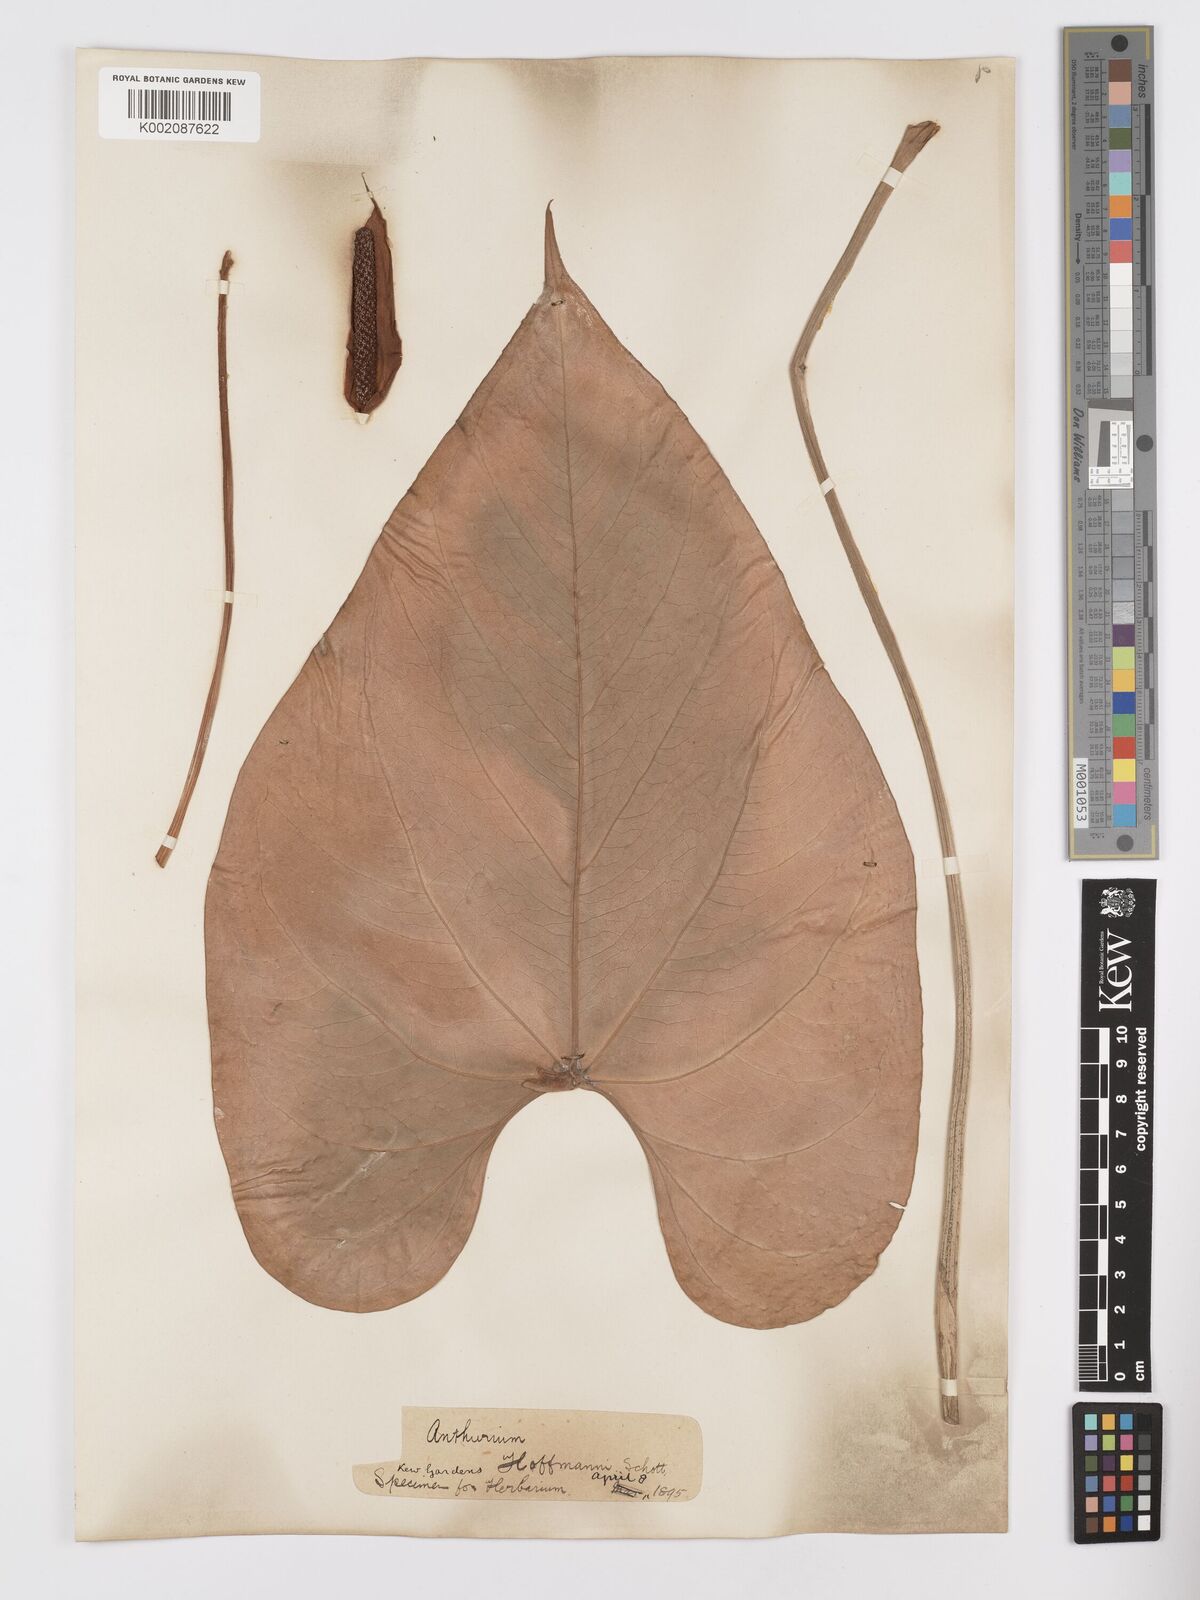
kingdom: Plantae
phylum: Tracheophyta
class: Liliopsida
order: Alismatales
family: Araceae
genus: Anthurium
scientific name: Anthurium hoffmannii
